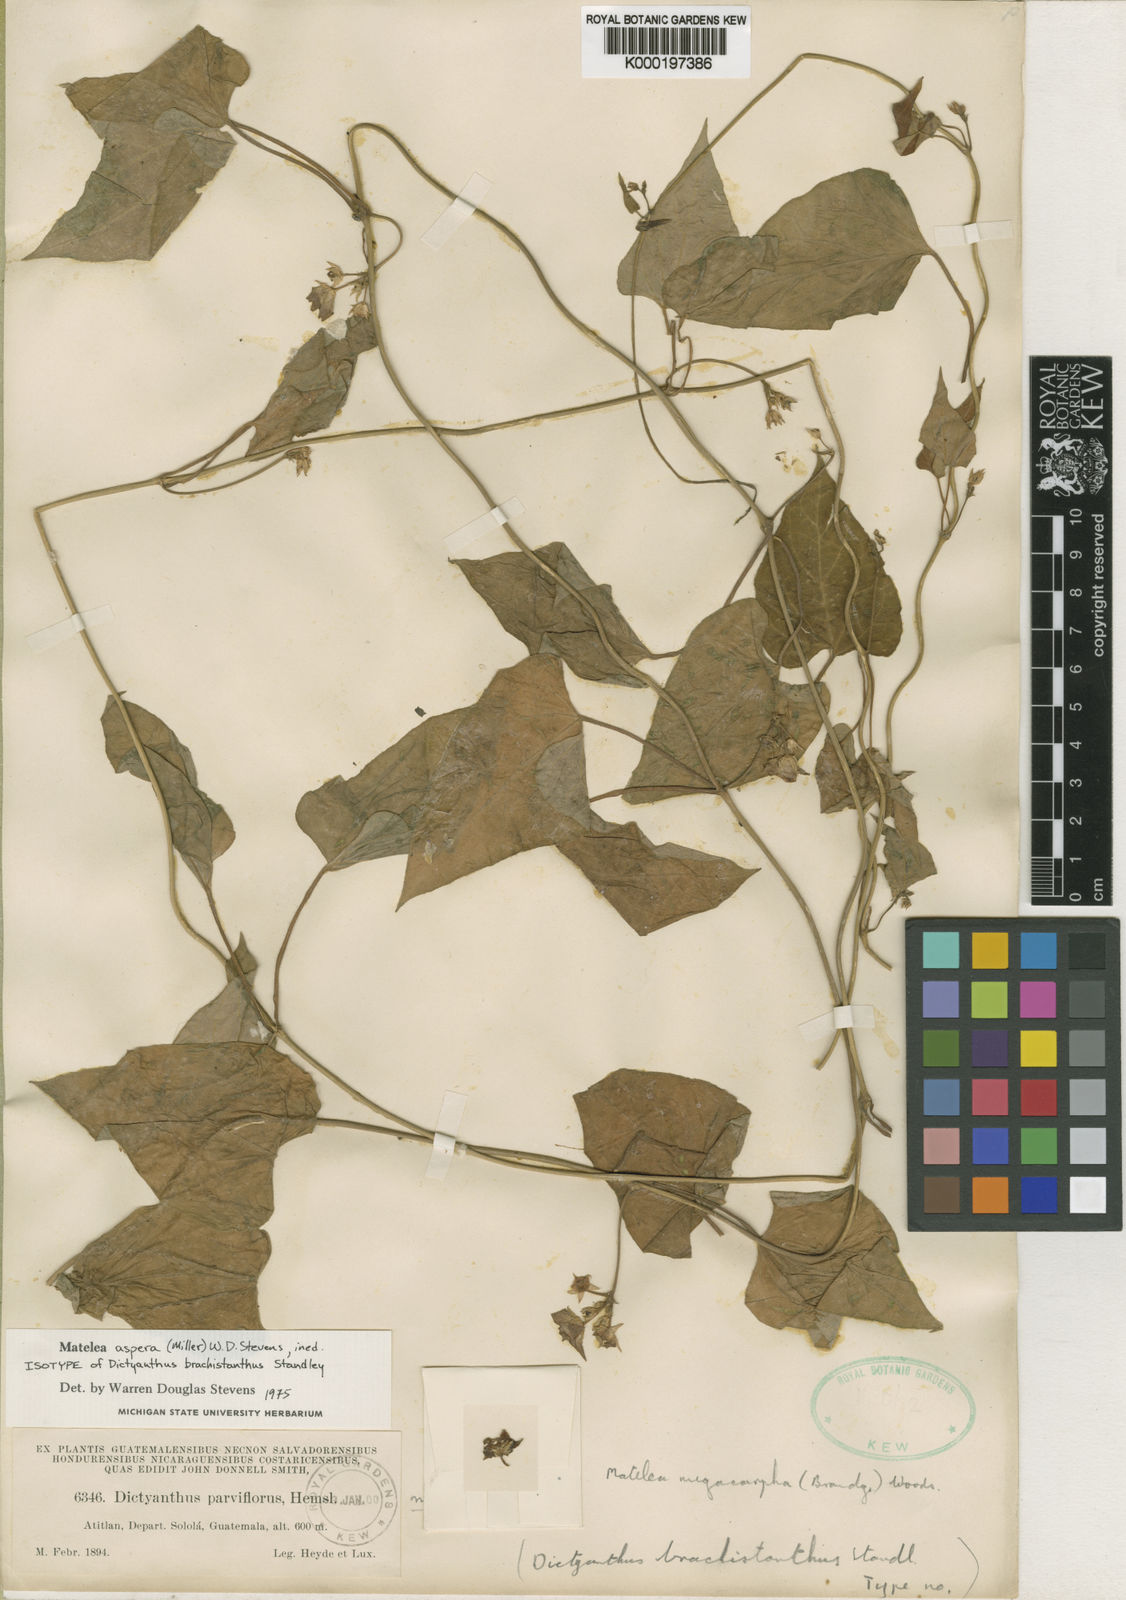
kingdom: Plantae
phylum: Tracheophyta
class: Magnoliopsida
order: Gentianales
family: Apocynaceae
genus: Dictyanthus
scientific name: Dictyanthus asper
